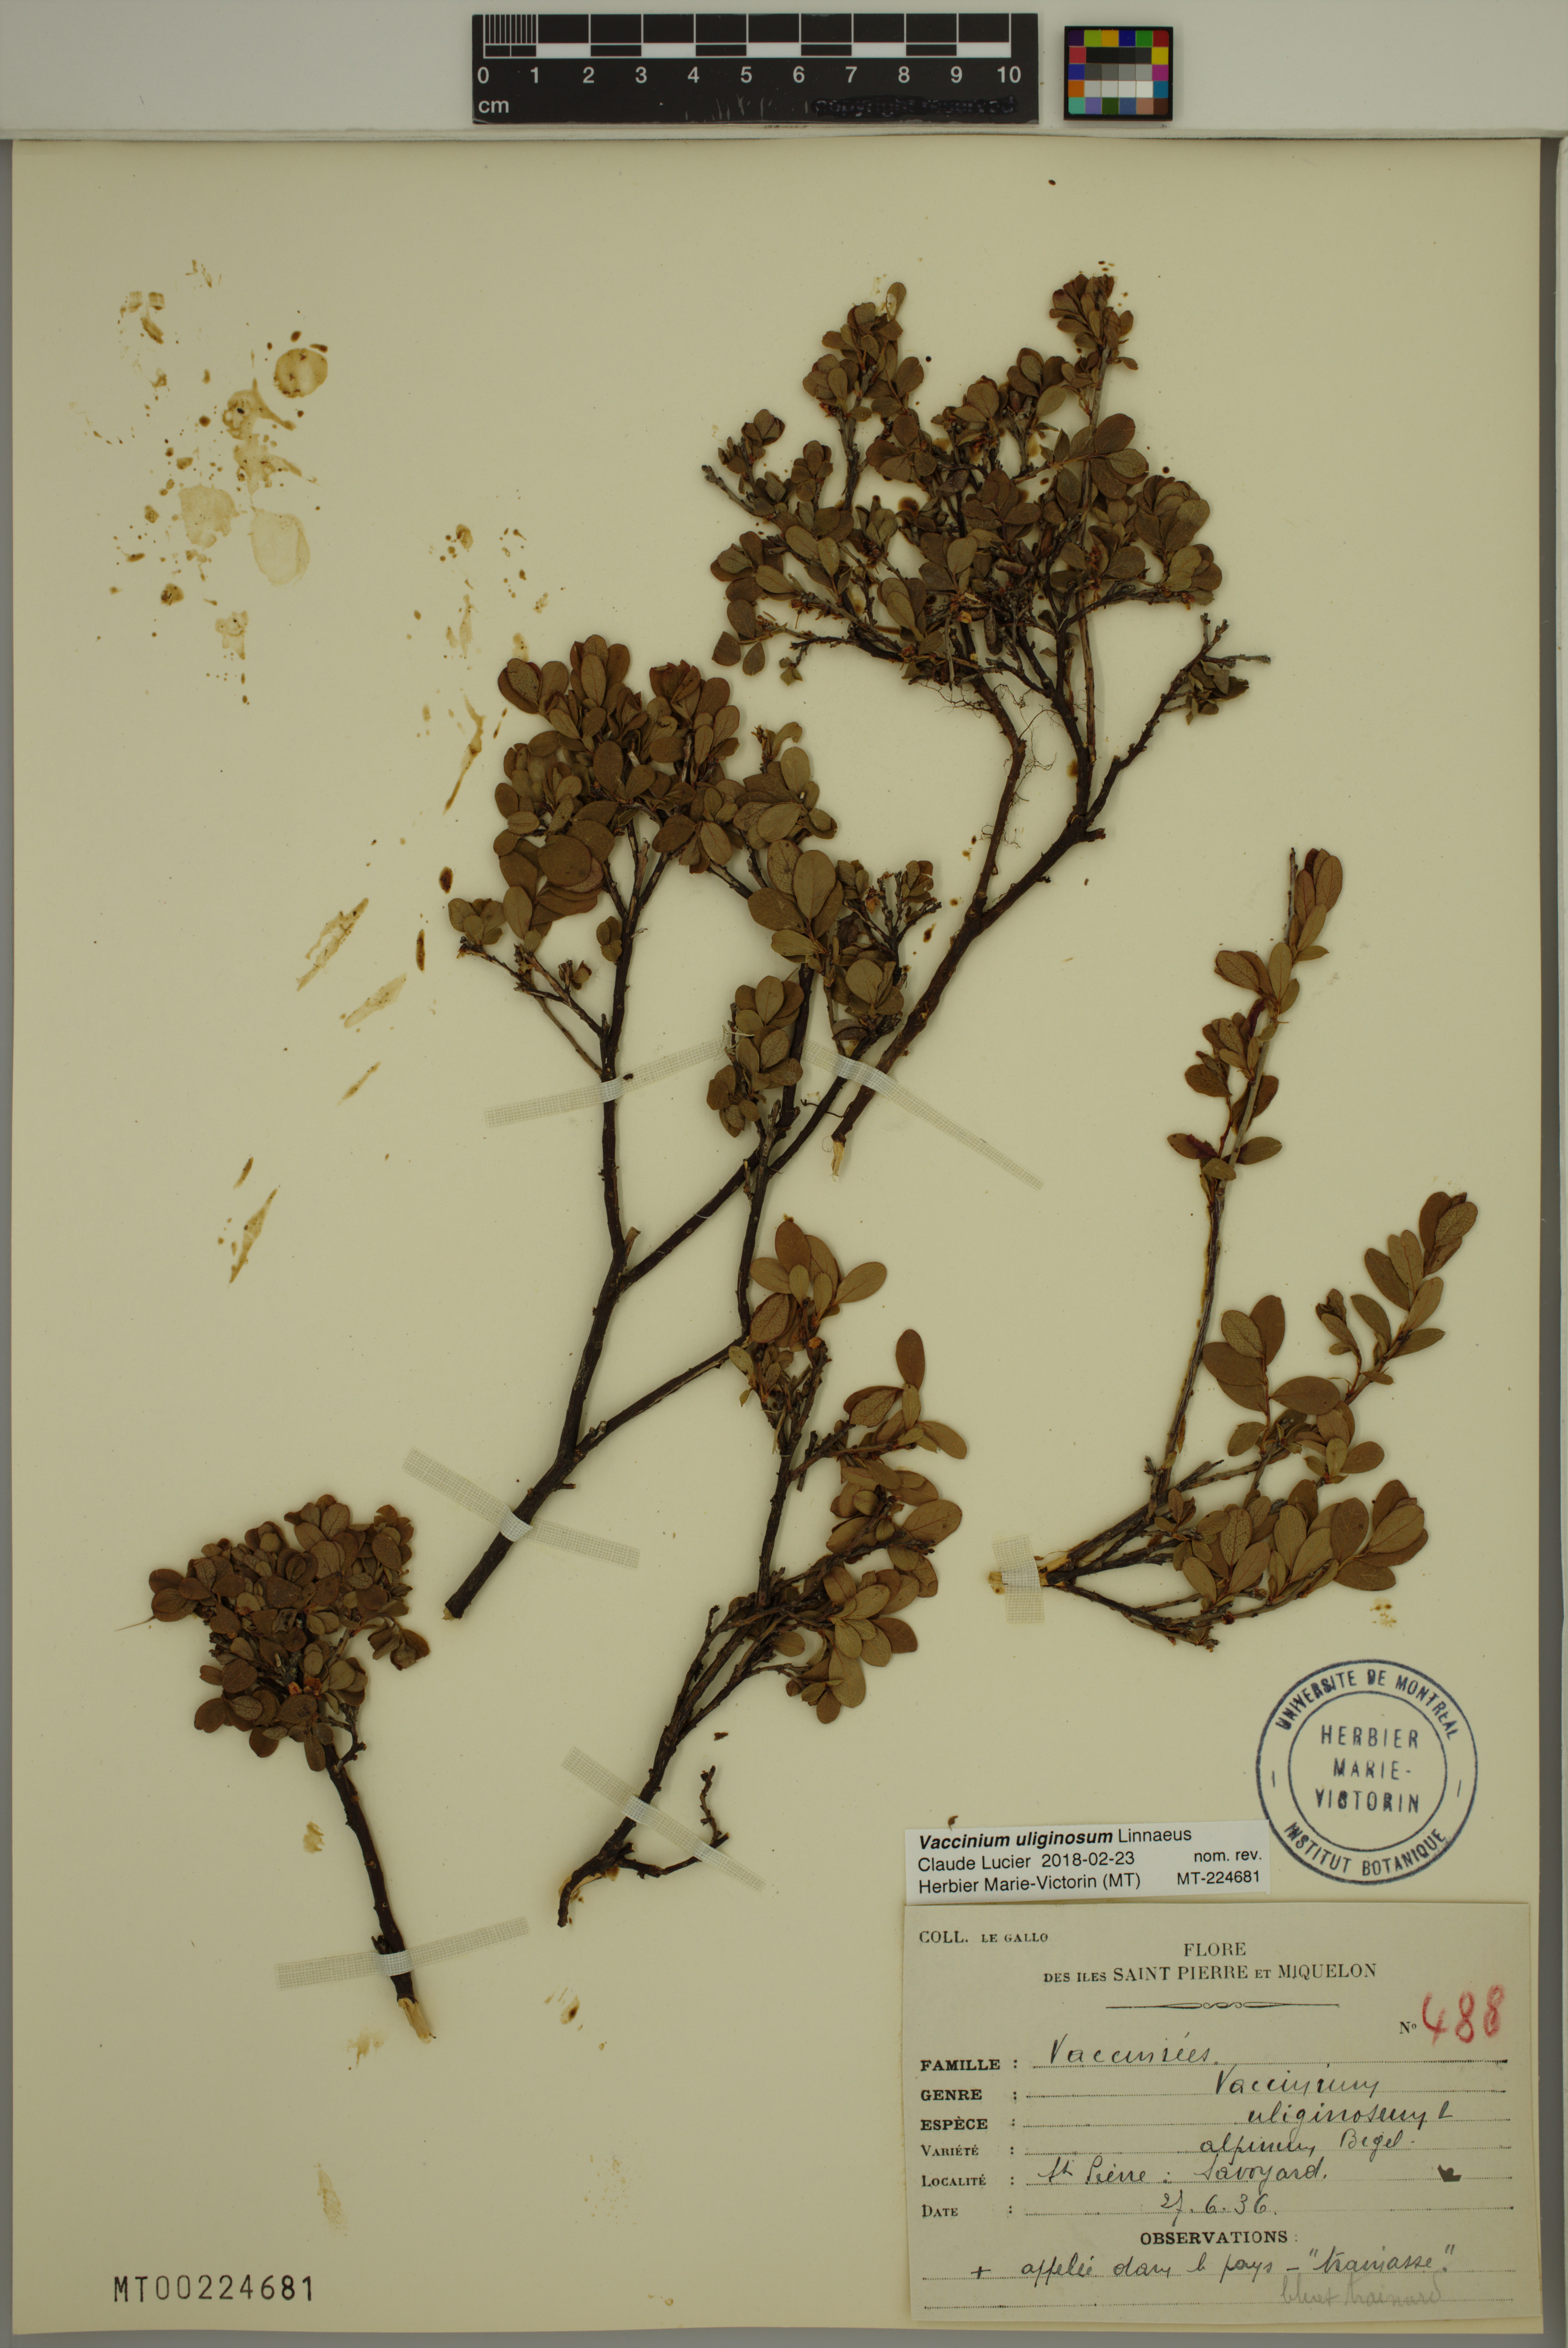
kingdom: Plantae
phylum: Tracheophyta
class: Magnoliopsida
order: Ericales
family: Ericaceae
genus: Vaccinium
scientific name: Vaccinium uliginosum
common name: Bog bilberry
